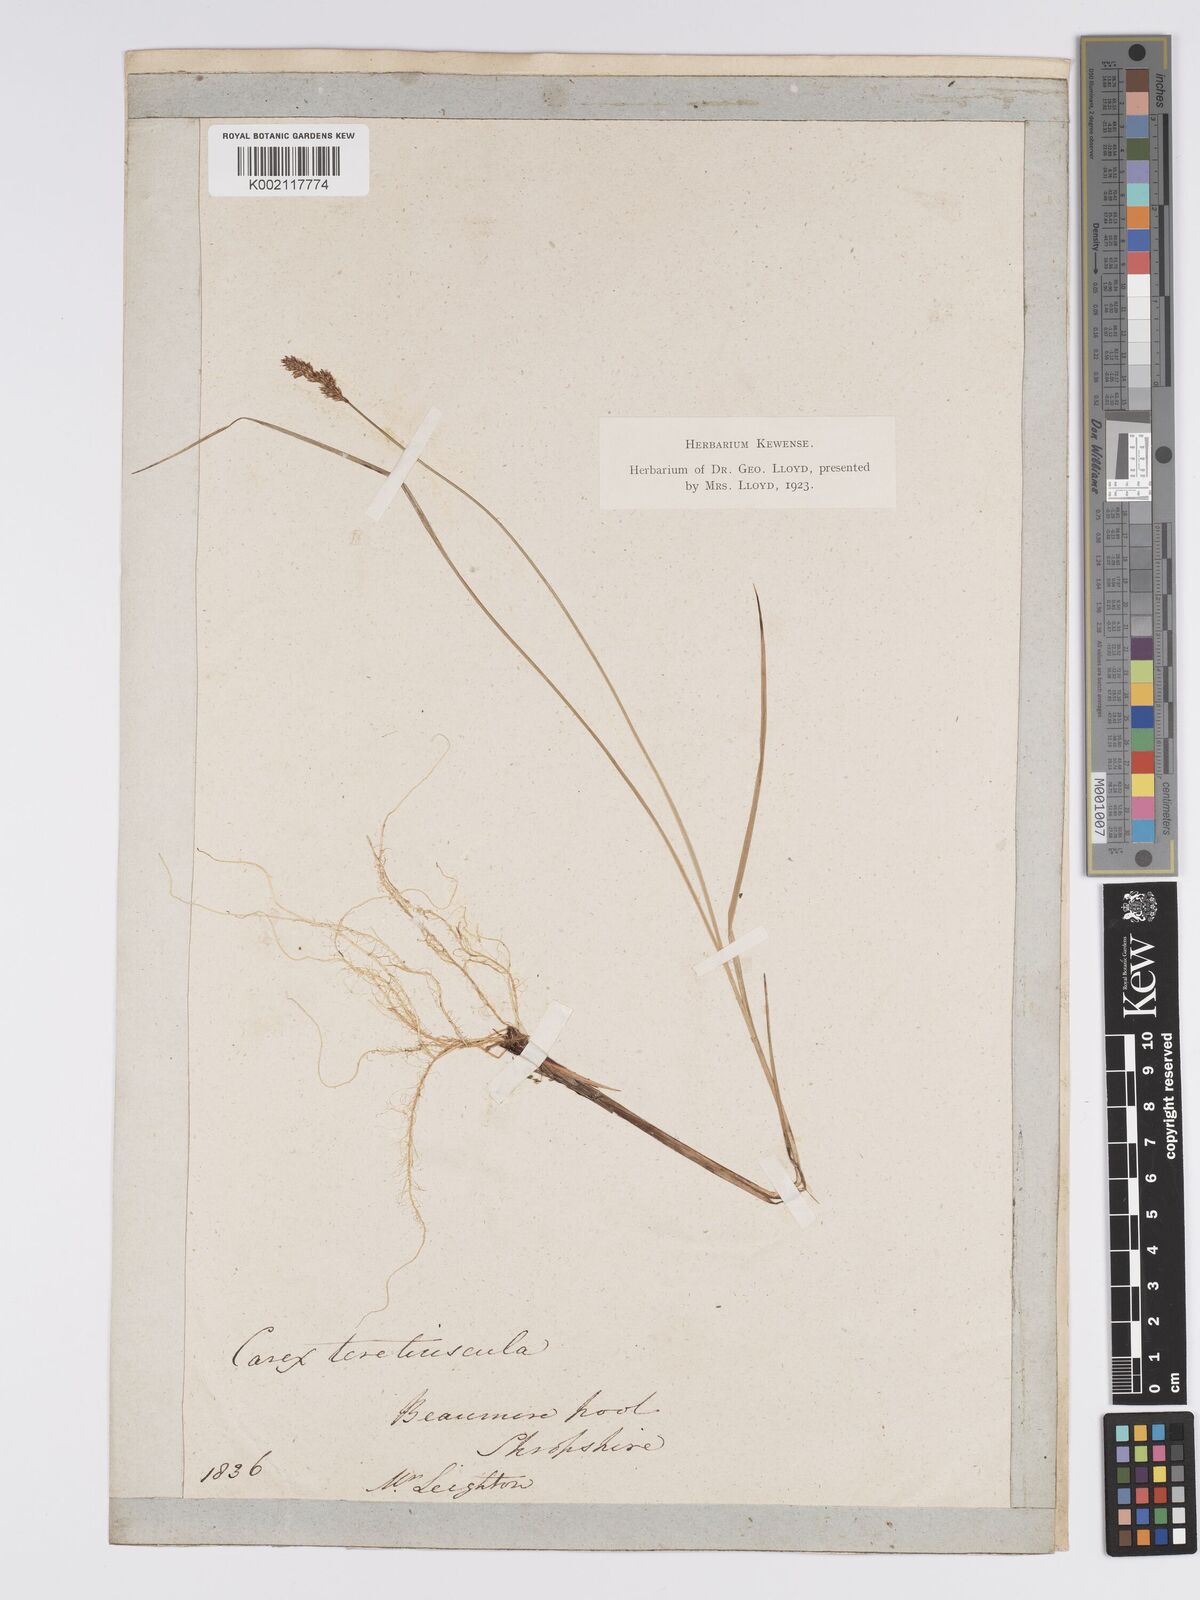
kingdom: Plantae
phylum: Tracheophyta
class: Liliopsida
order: Poales
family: Cyperaceae
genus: Carex
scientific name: Carex diandra
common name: Lesser tussock-sedge
